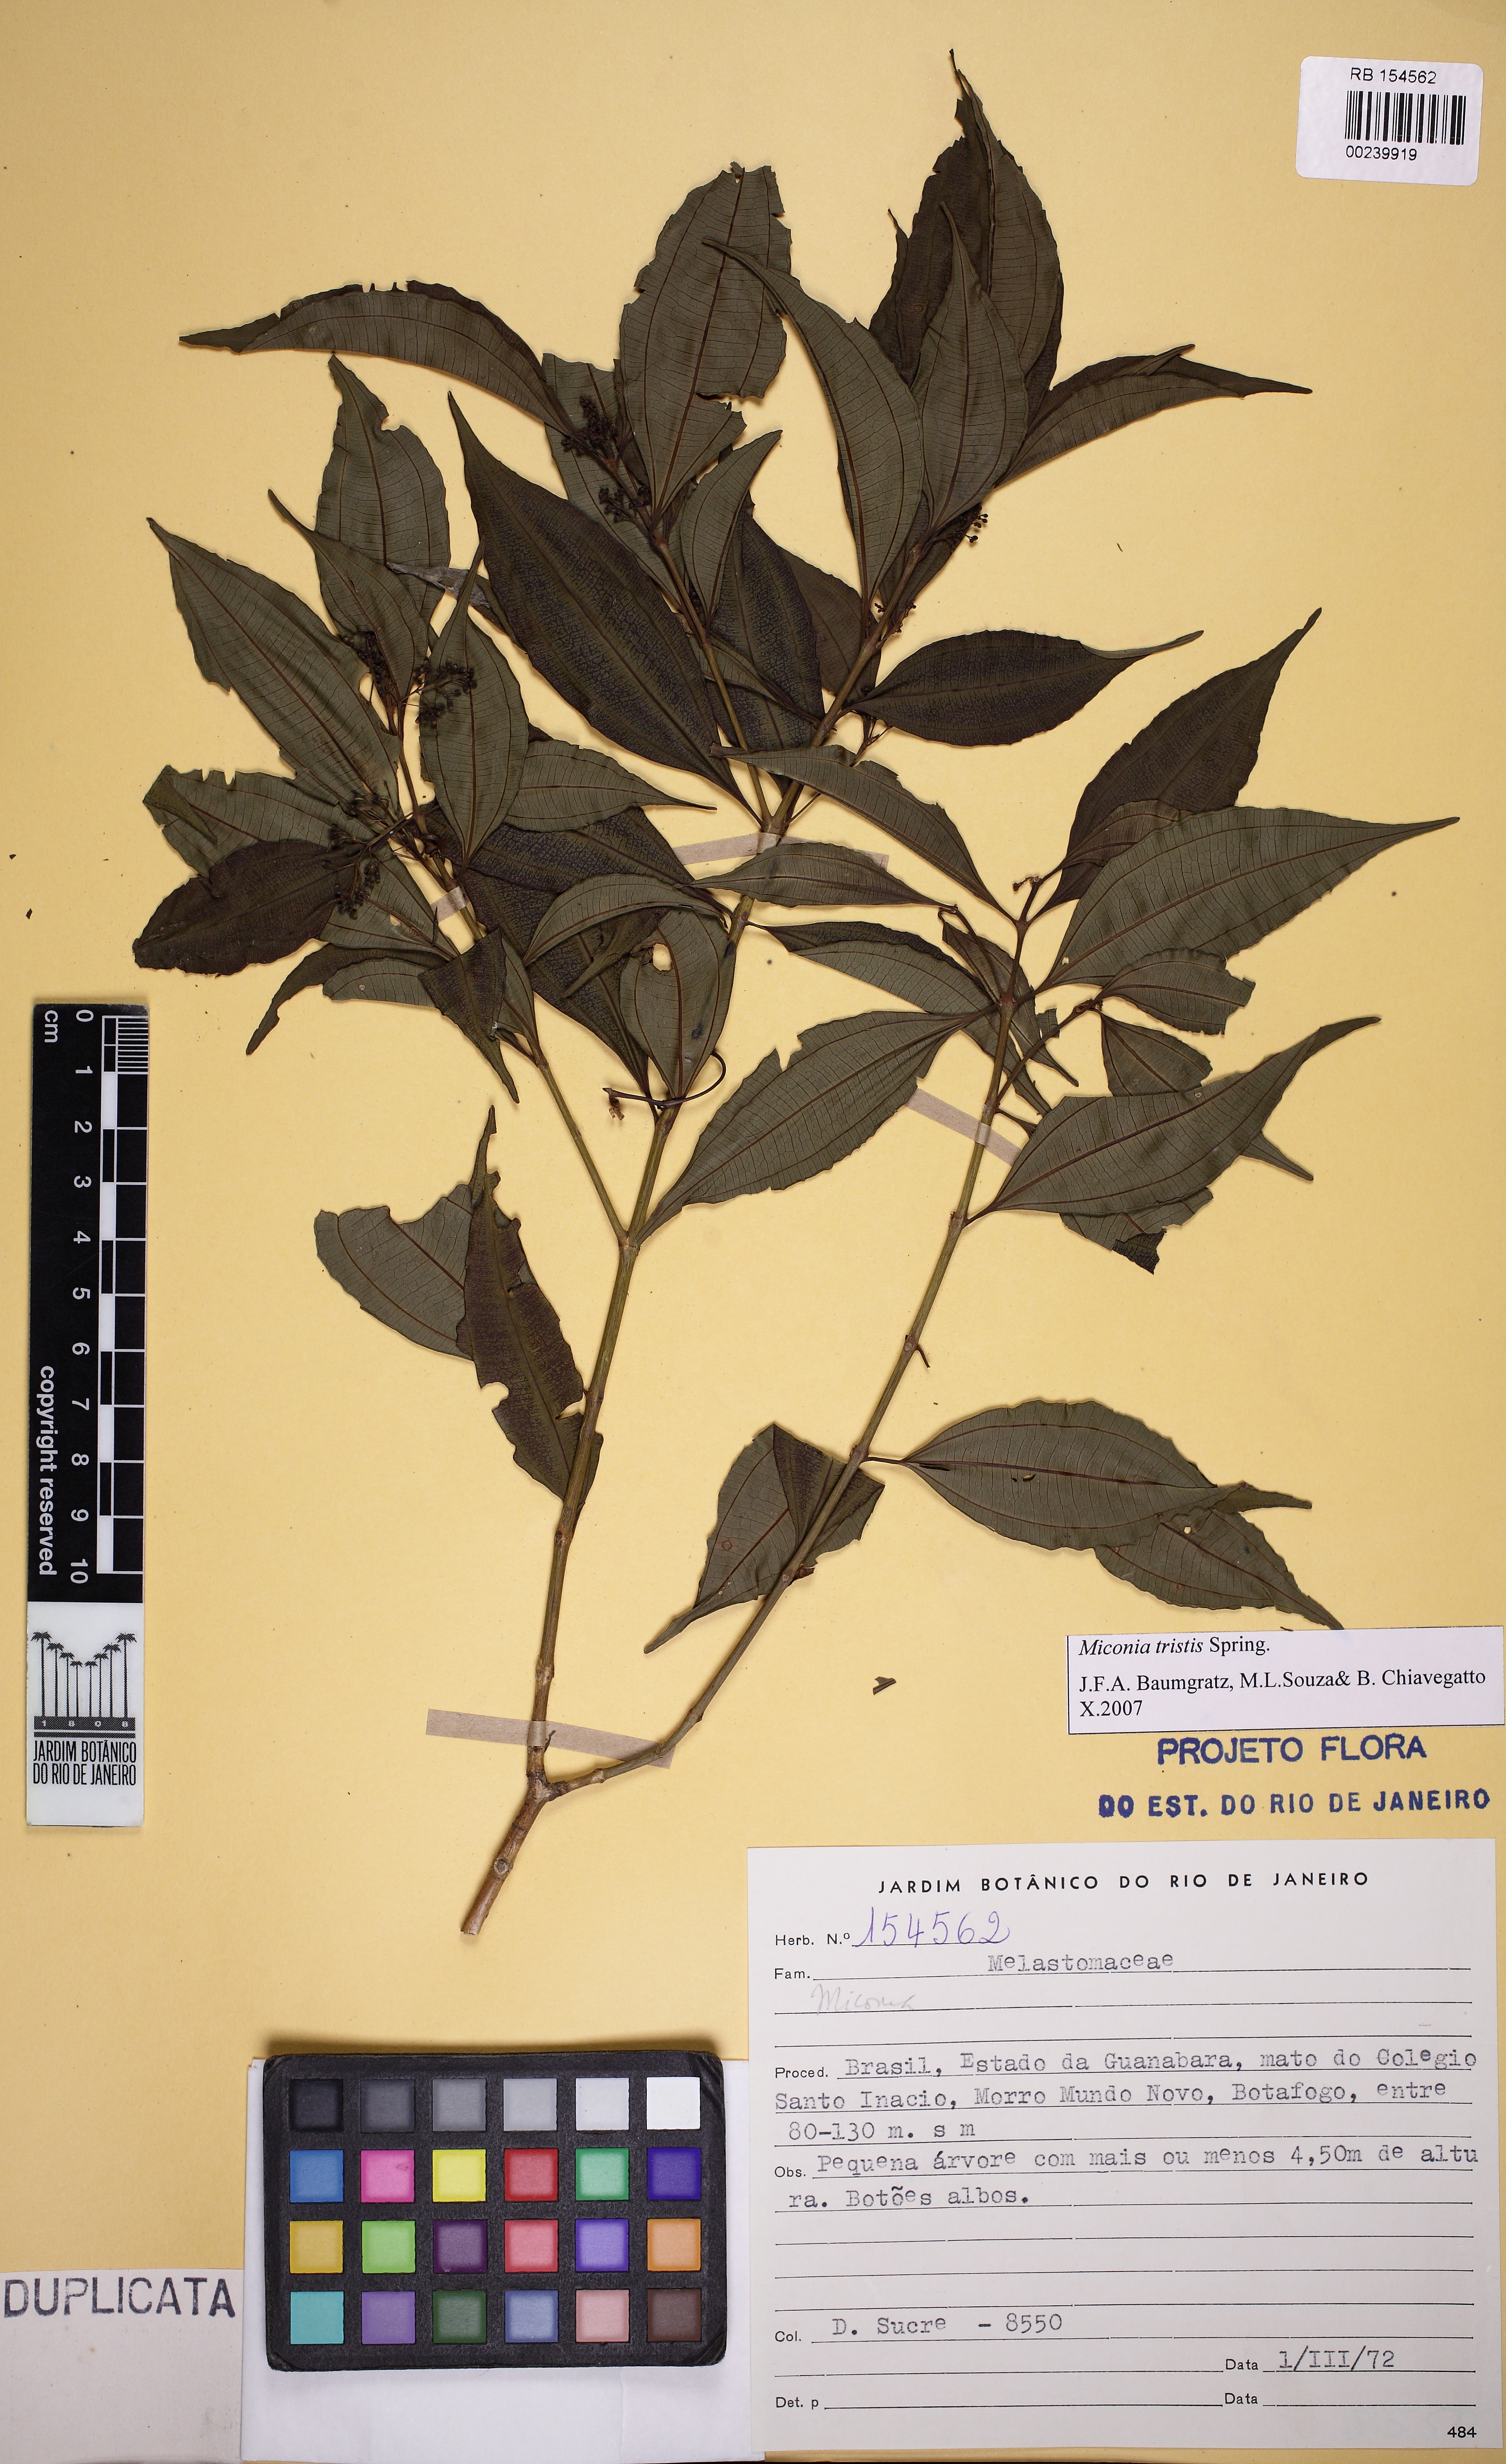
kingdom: Plantae
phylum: Tracheophyta
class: Magnoliopsida
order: Myrtales
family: Melastomataceae
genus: Miconia
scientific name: Miconia theizans
